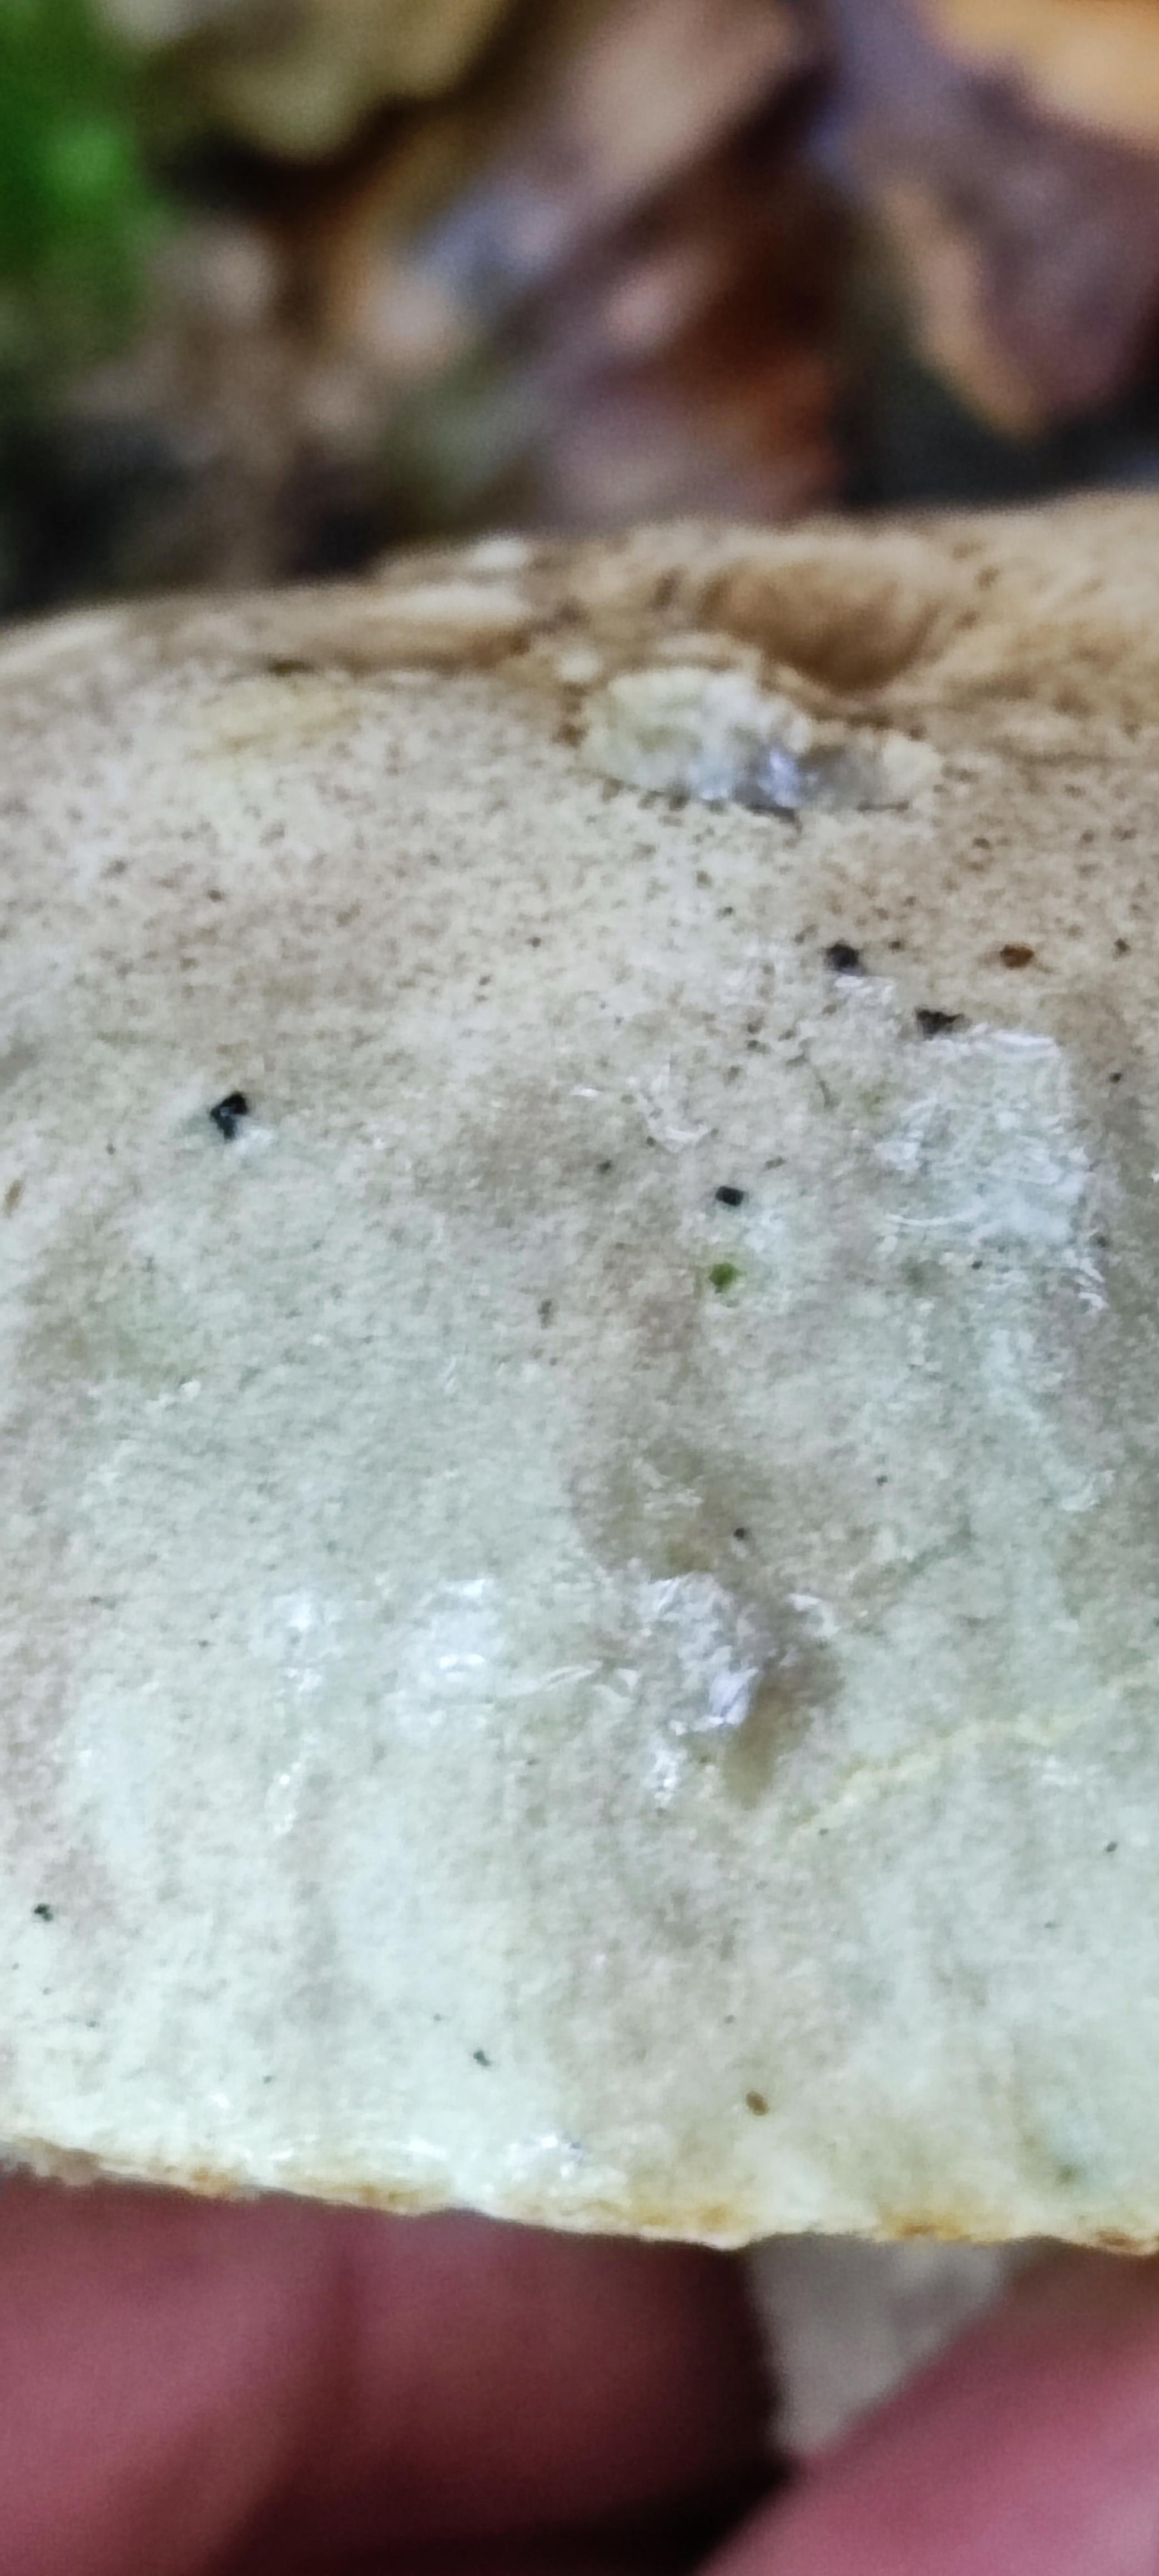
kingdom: Fungi
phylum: Basidiomycota
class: Agaricomycetes
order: Boletales
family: Boletaceae
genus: Leccinum
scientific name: Leccinum
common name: skælrørhat
